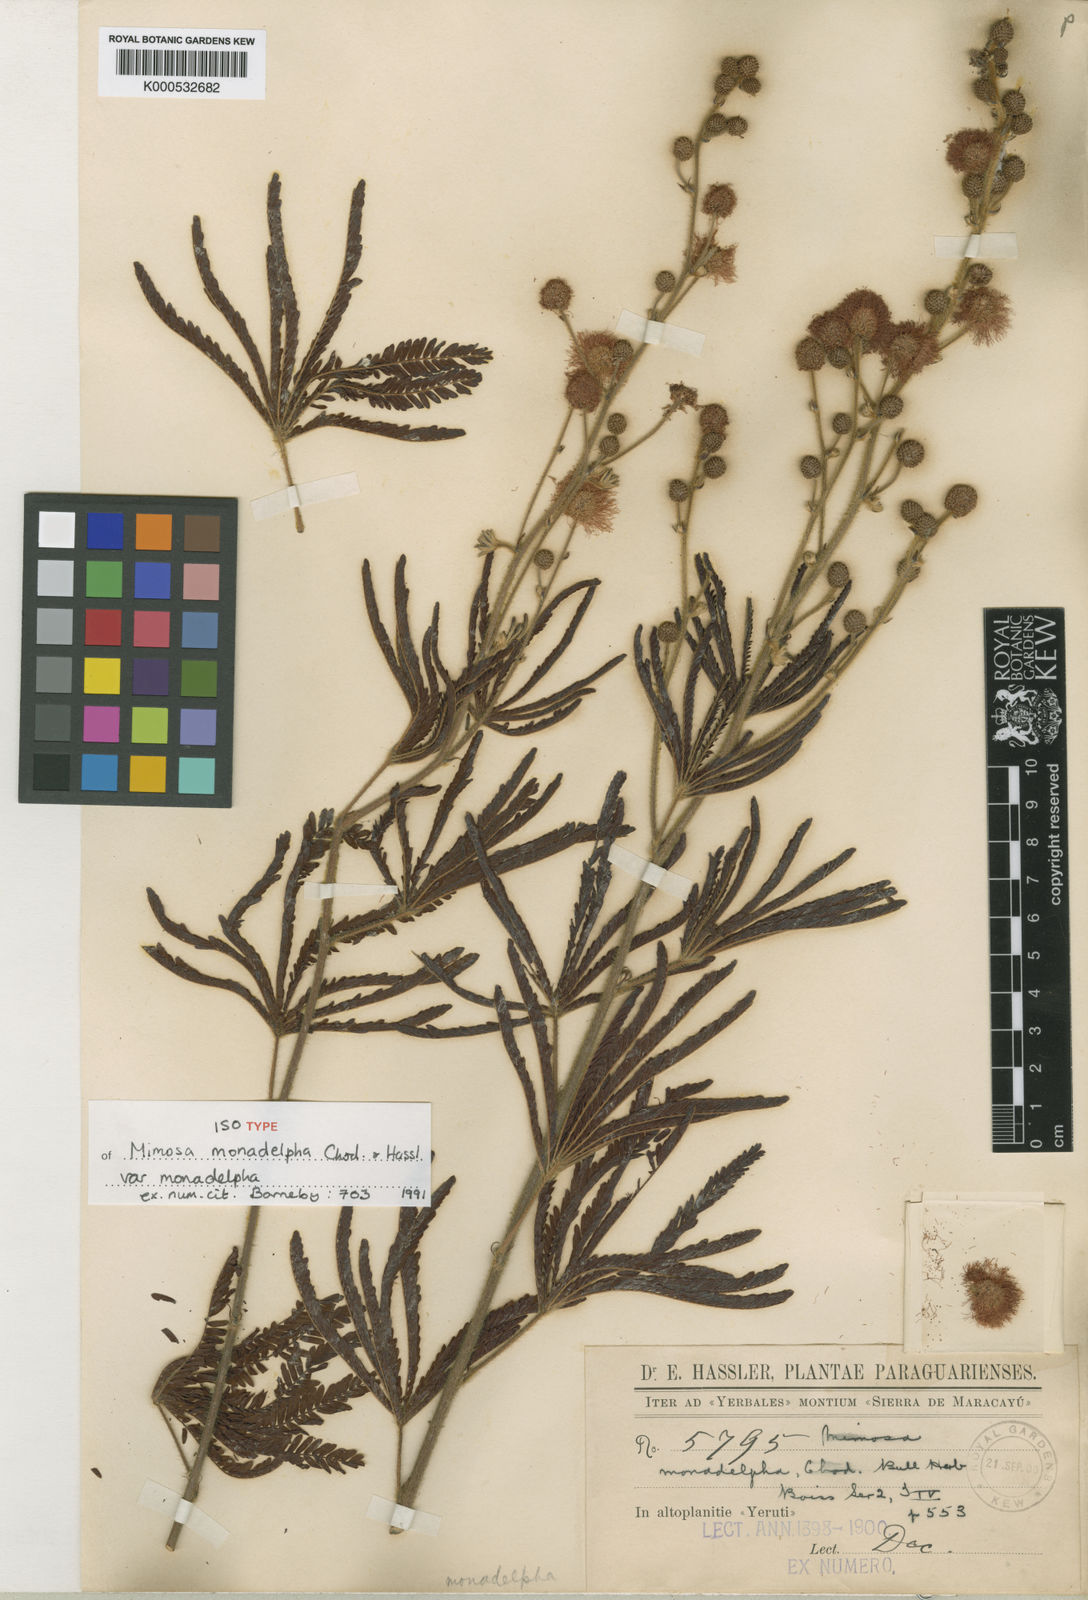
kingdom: Plantae
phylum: Tracheophyta
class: Magnoliopsida
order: Fabales
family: Fabaceae
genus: Mimosa
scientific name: Mimosa amambayensis
